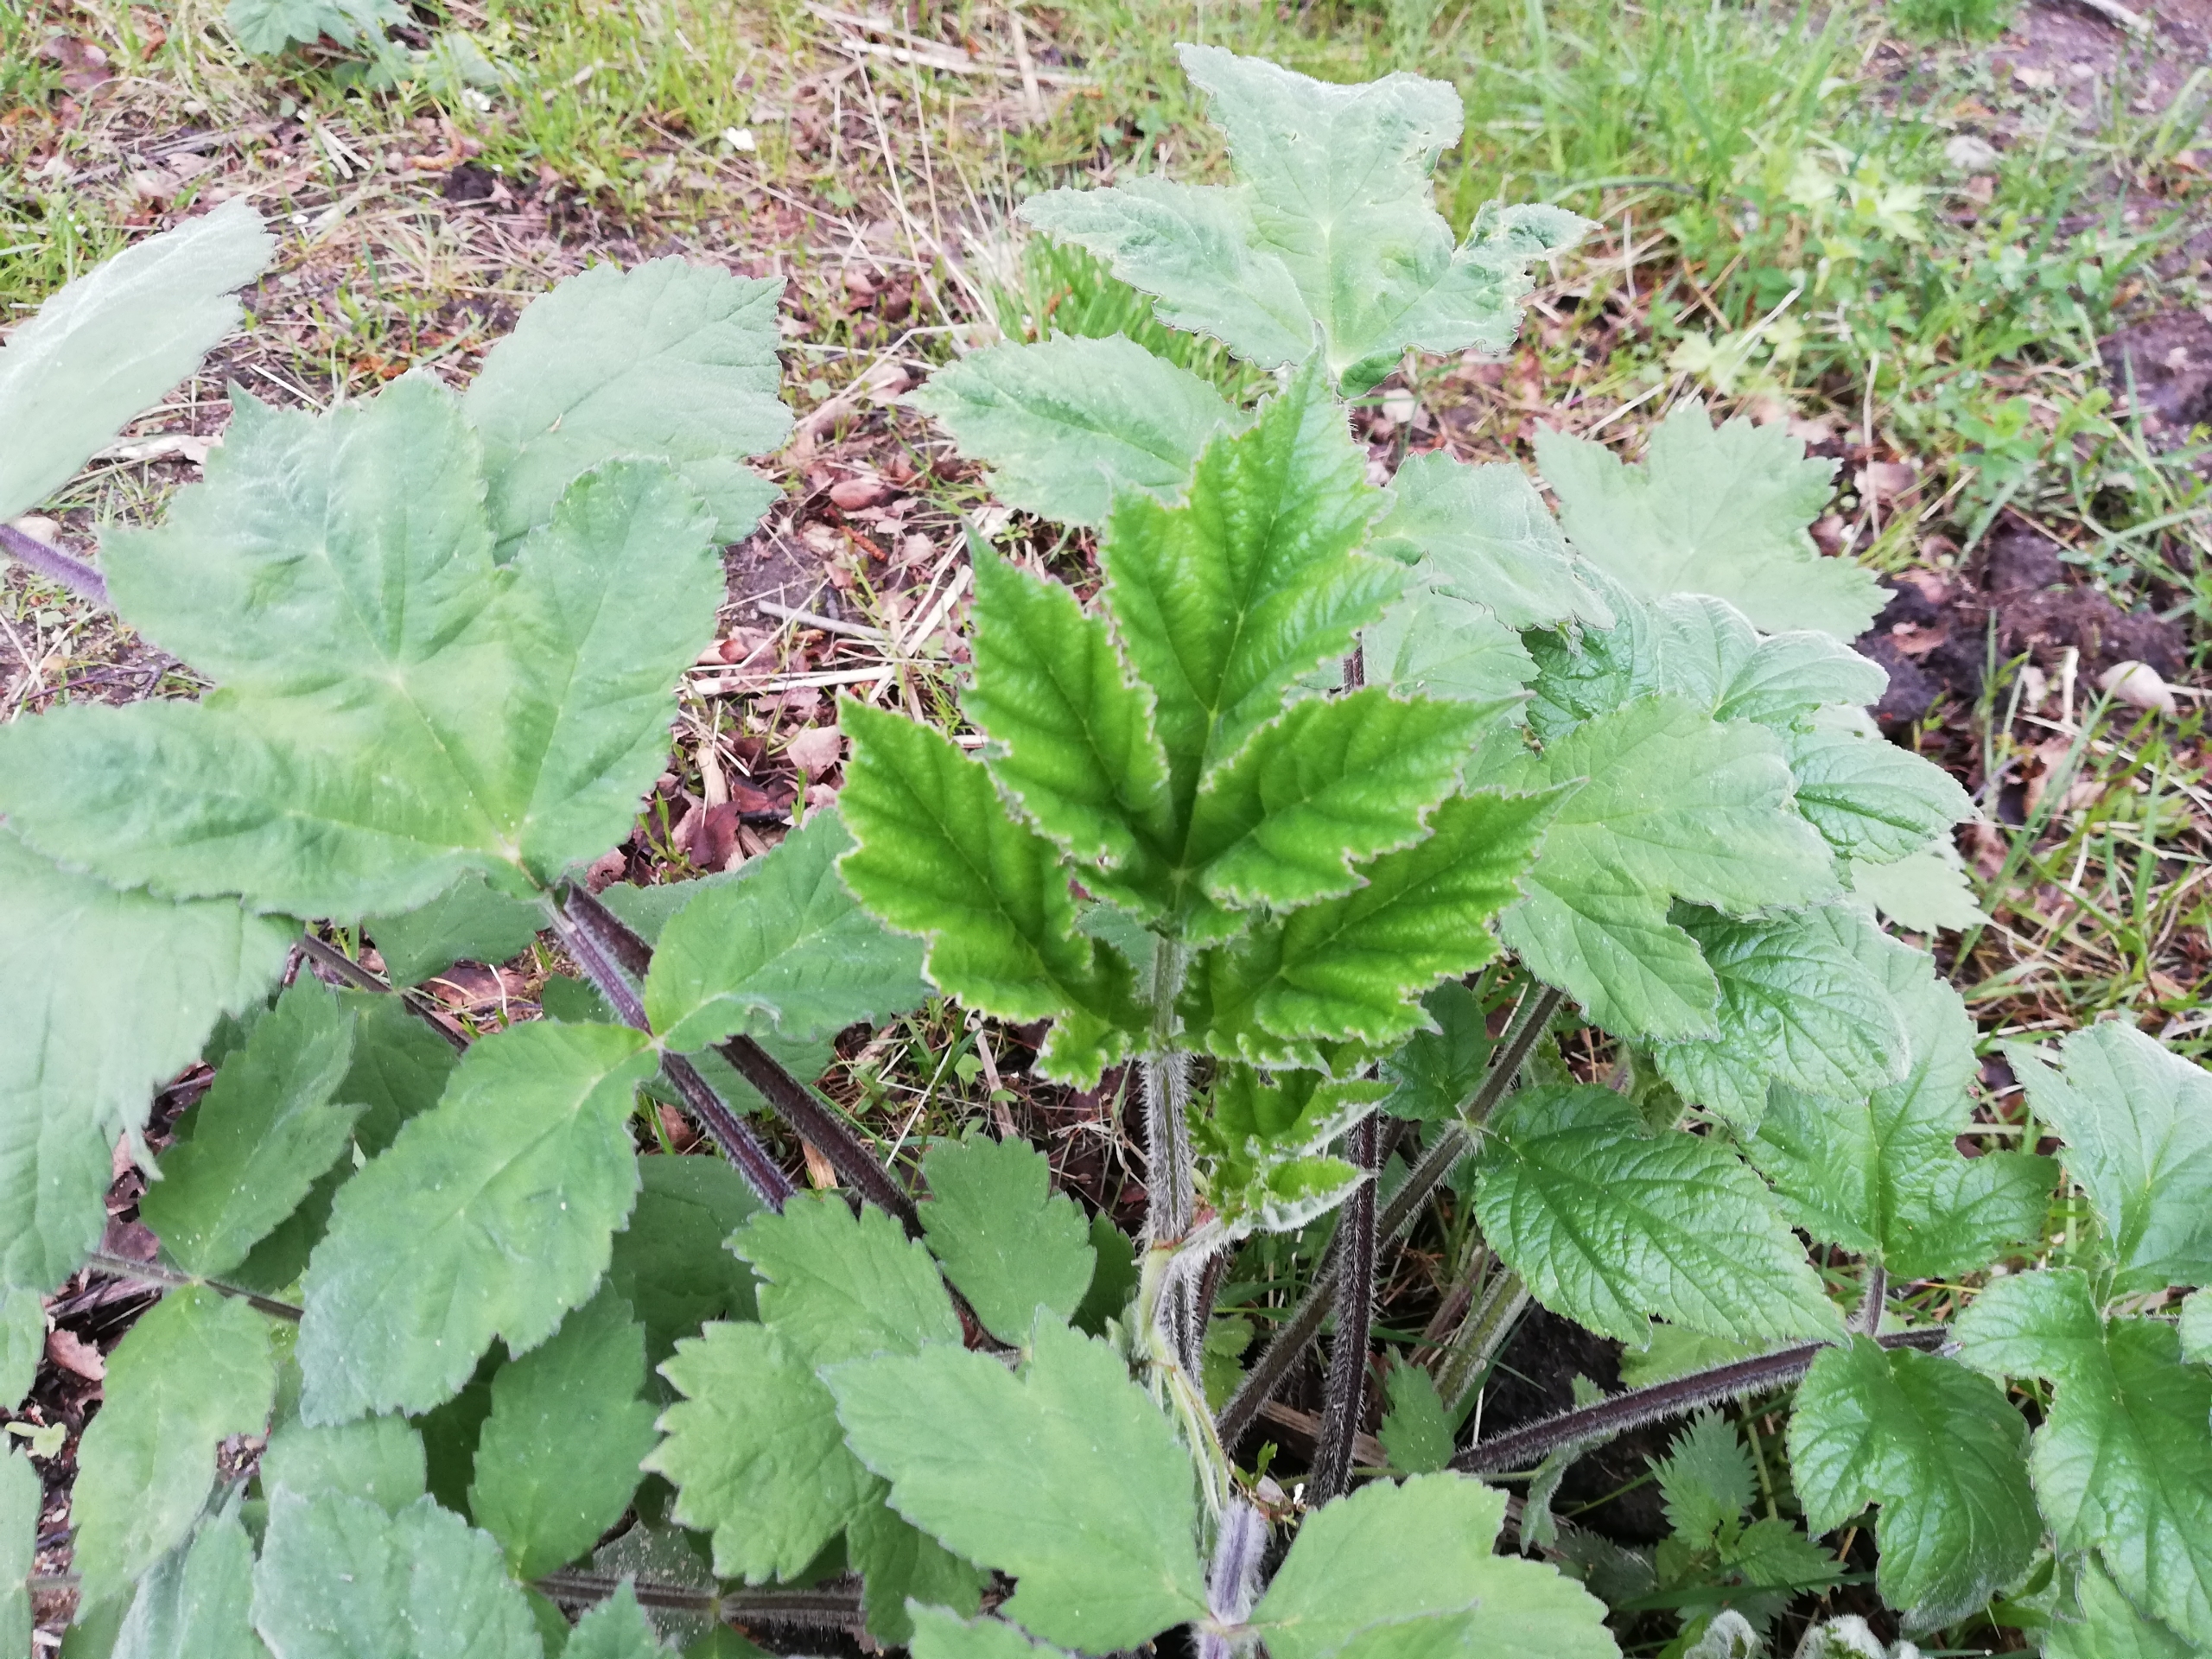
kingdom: Plantae
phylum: Tracheophyta
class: Magnoliopsida
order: Apiales
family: Apiaceae
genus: Heracleum
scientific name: Heracleum mantegazzianum
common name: Kæmpe-bjørneklo
